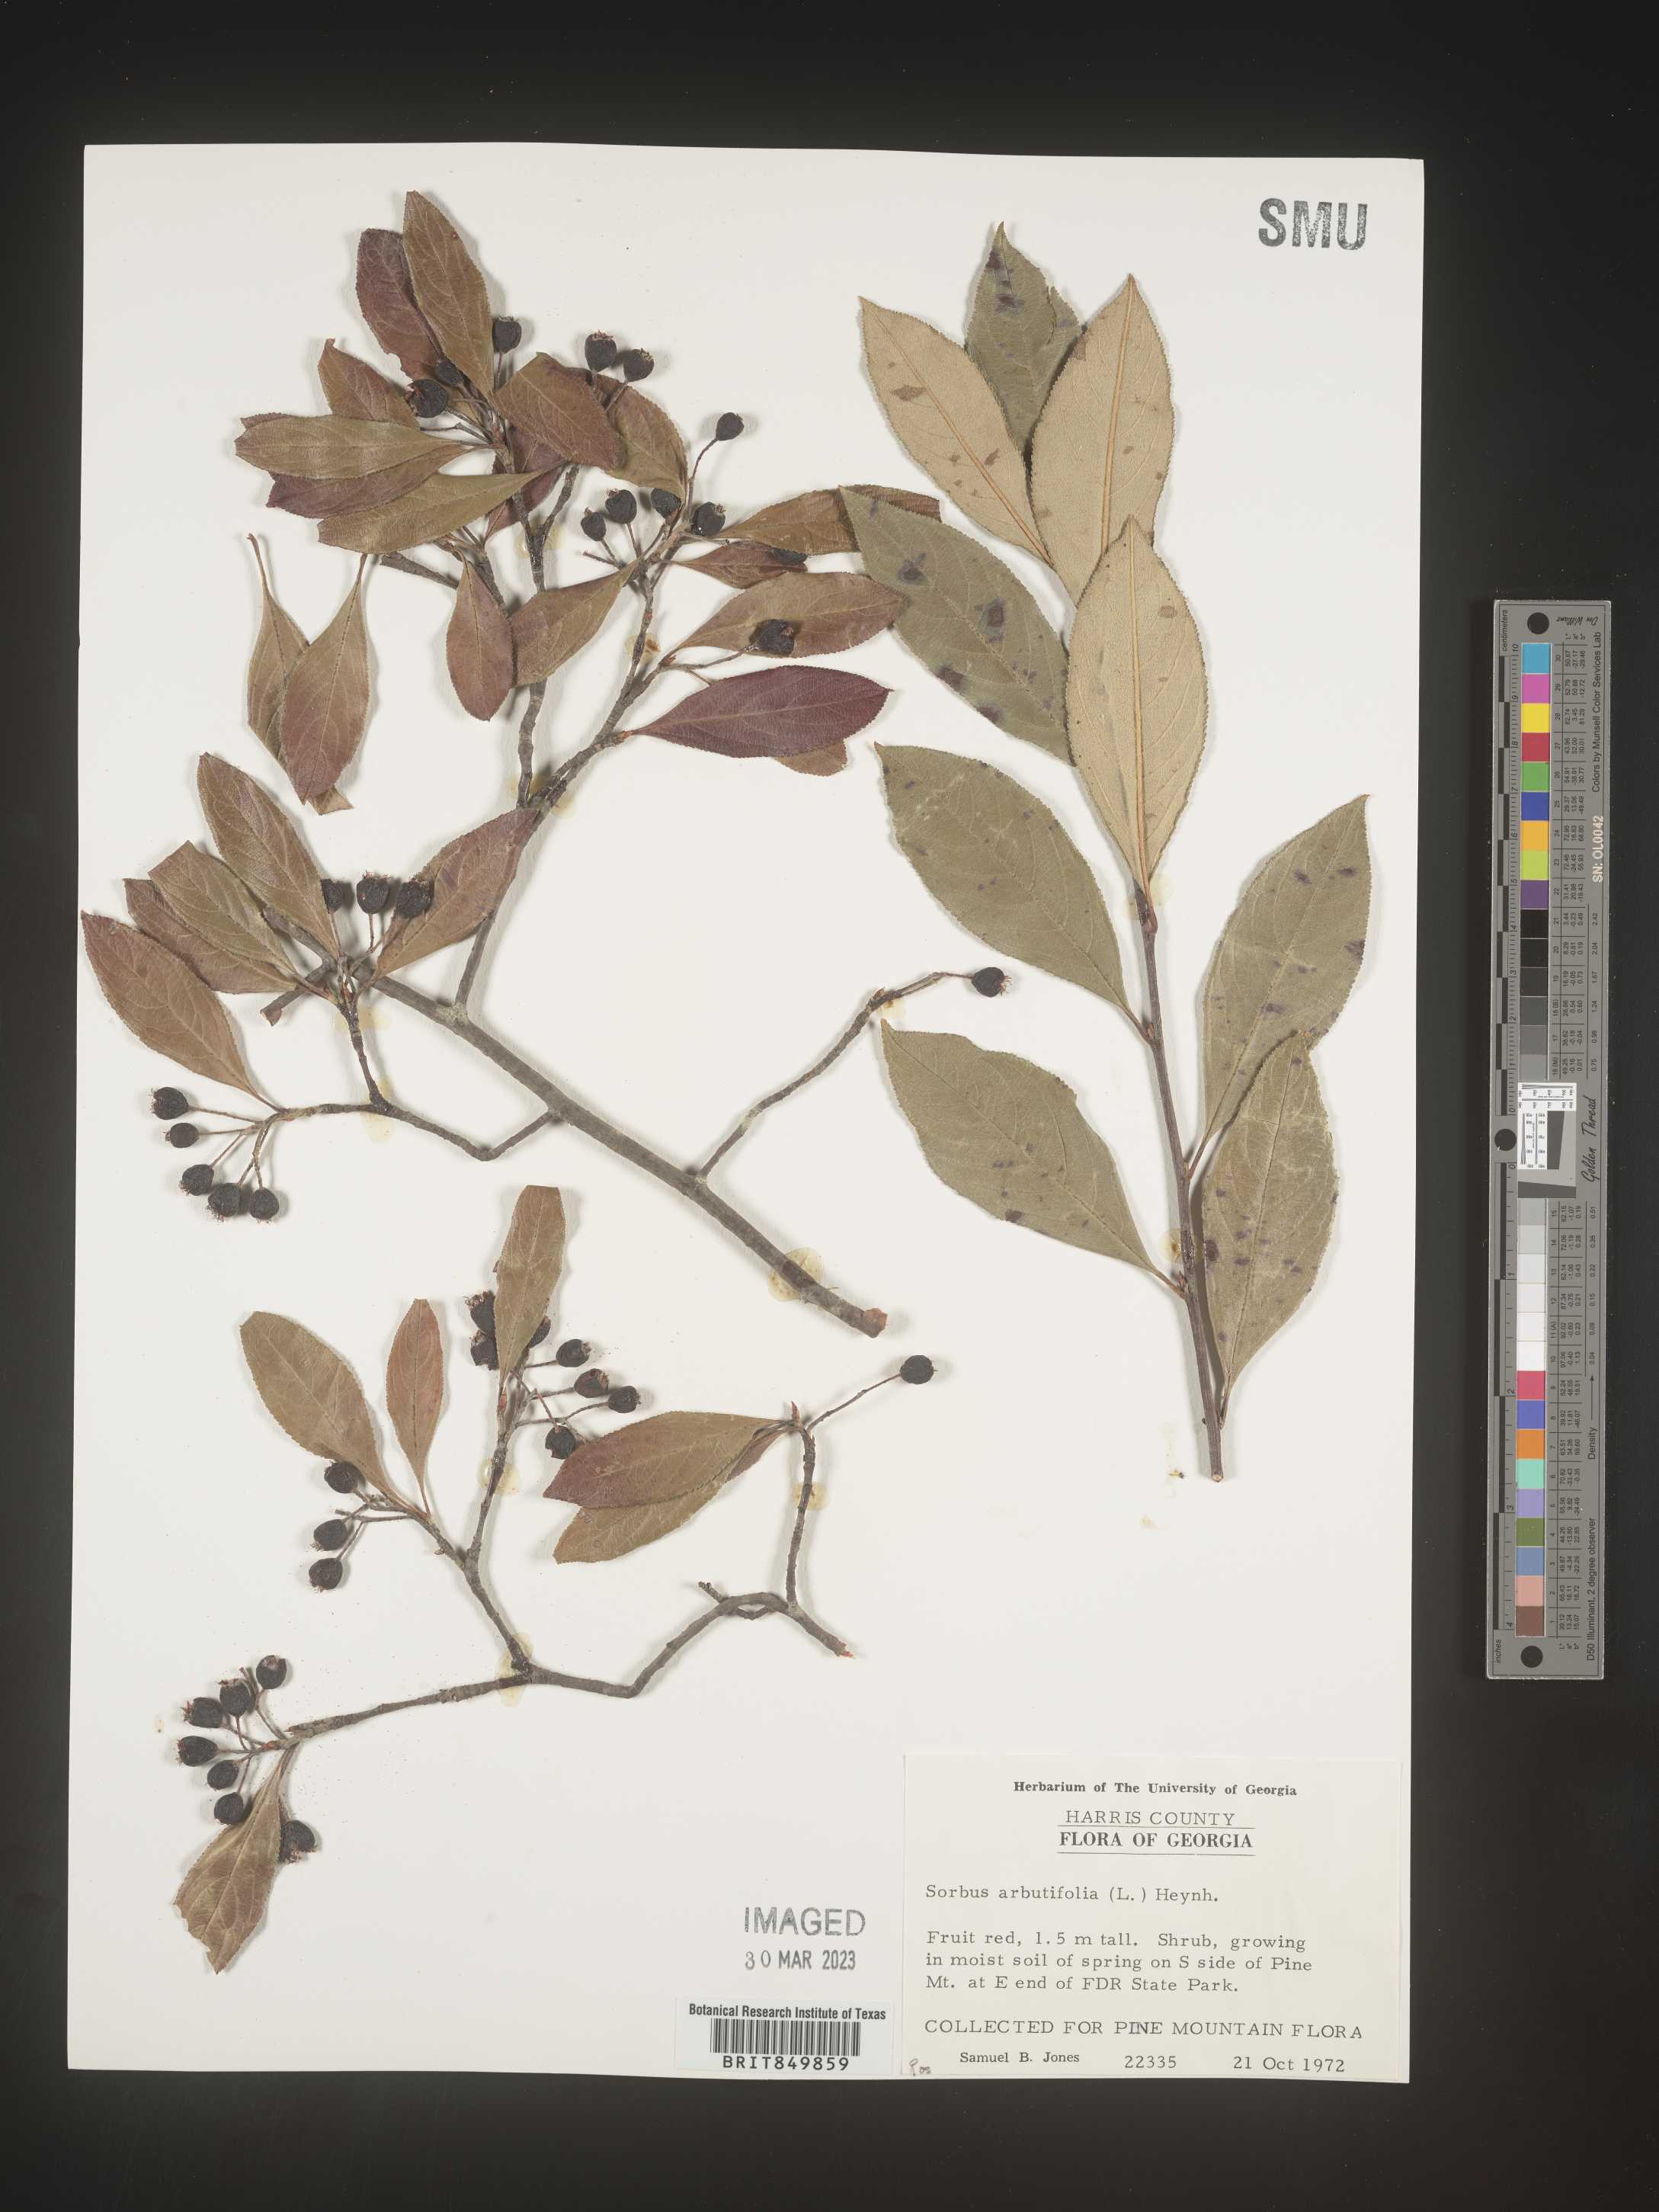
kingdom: Plantae
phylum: Tracheophyta
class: Magnoliopsida
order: Rosales
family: Rosaceae
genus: Sorbus
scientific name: Sorbus
